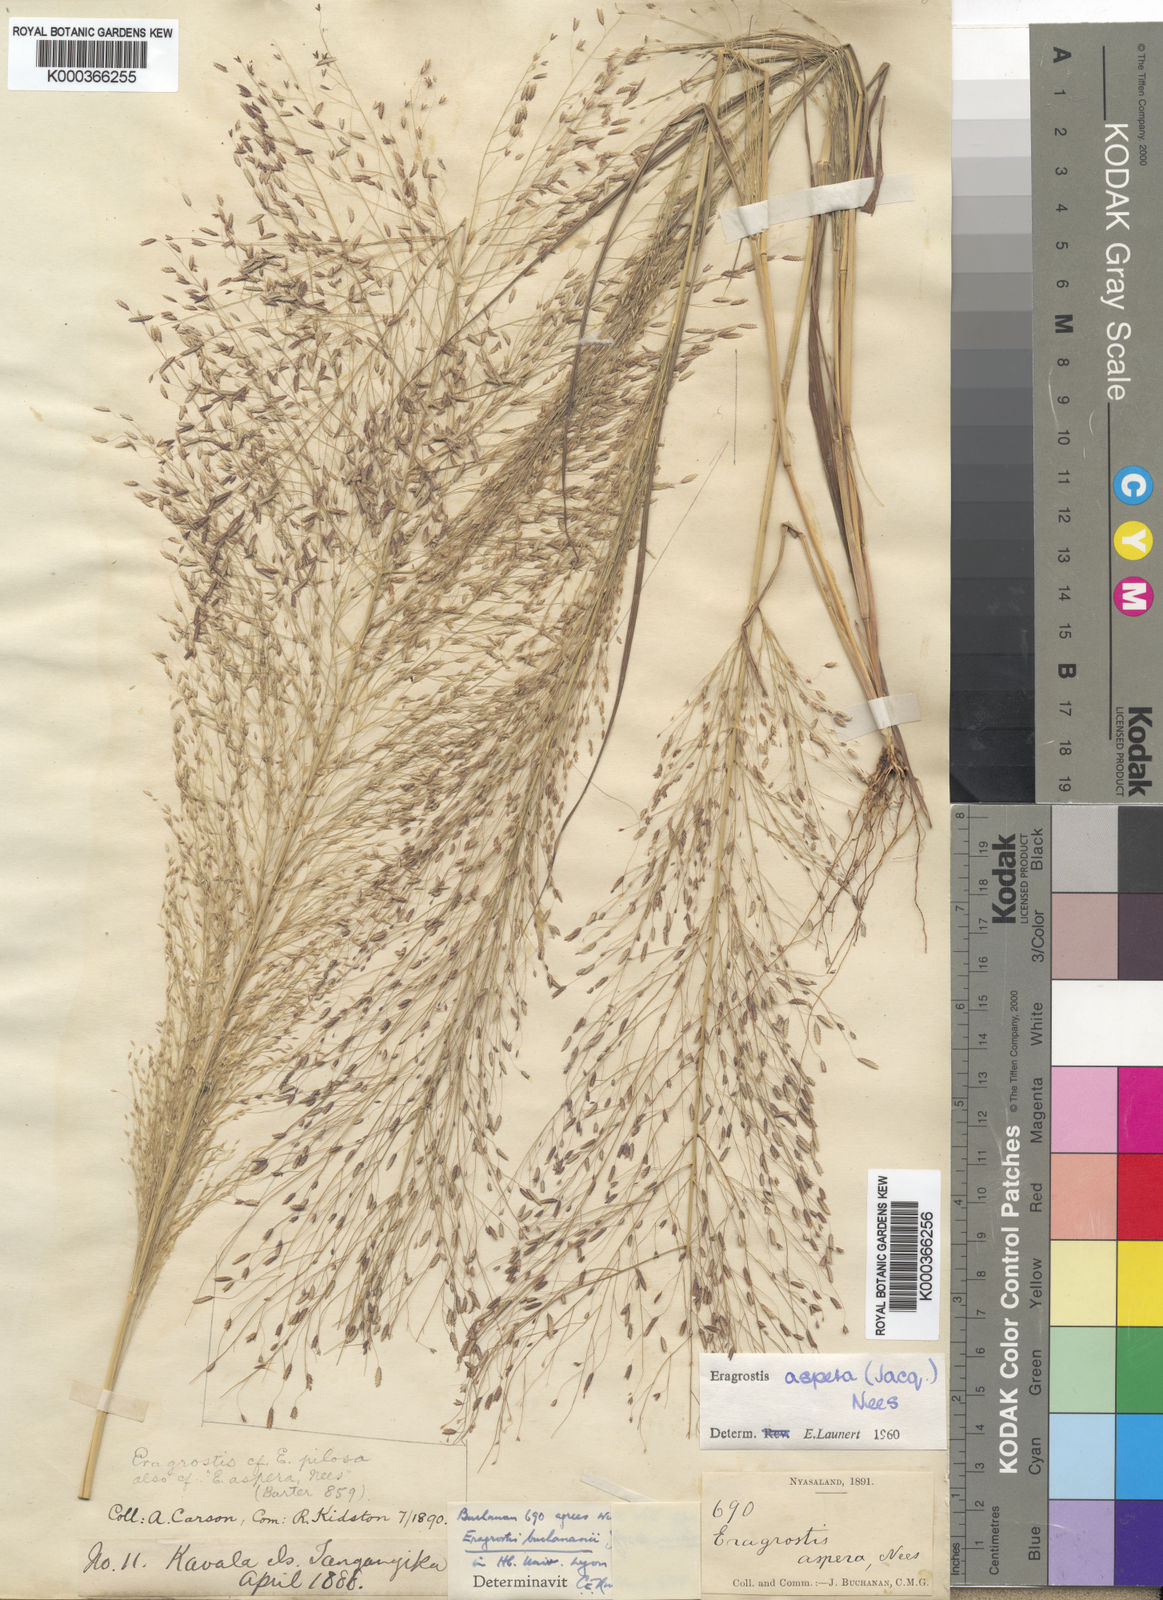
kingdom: Plantae
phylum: Tracheophyta
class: Liliopsida
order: Poales
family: Poaceae
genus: Eragrostis
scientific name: Eragrostis aspera
